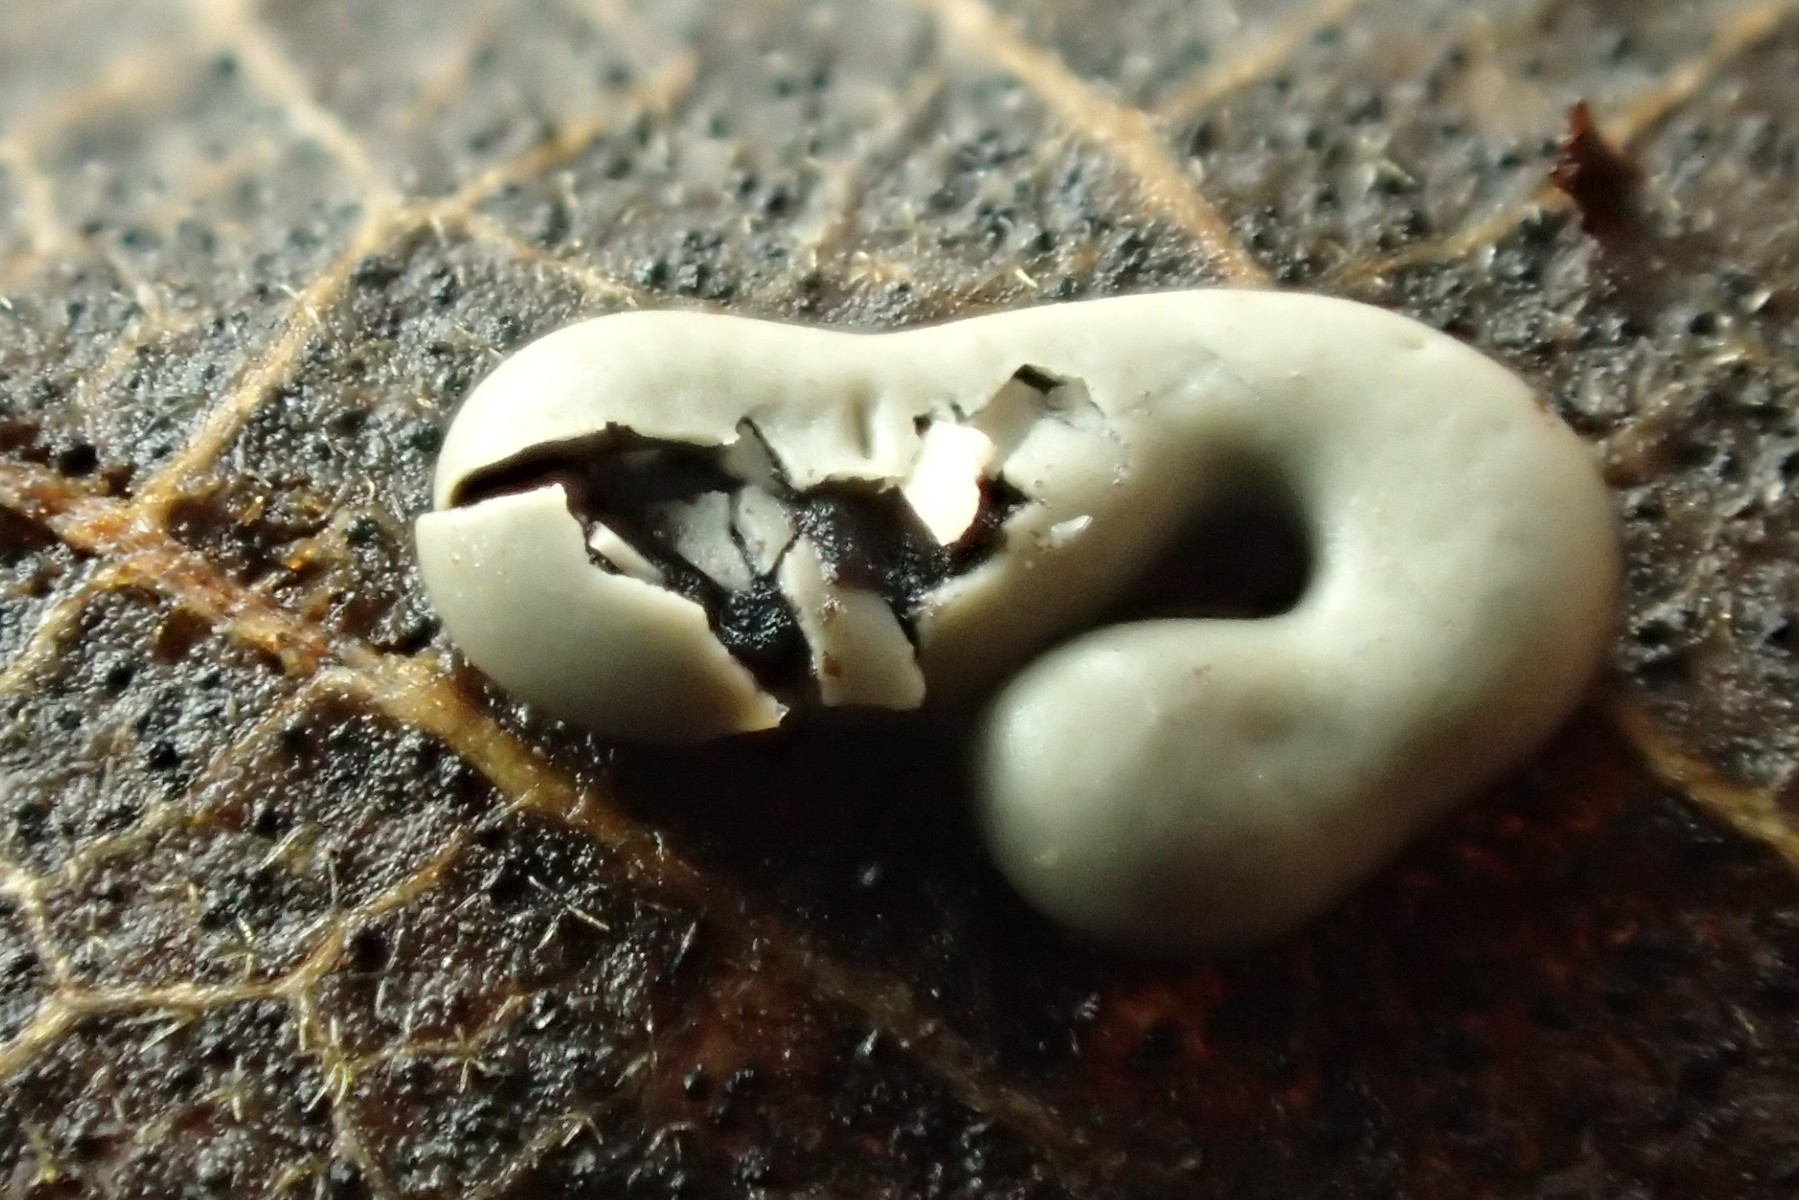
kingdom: Protozoa
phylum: Mycetozoa
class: Myxomycetes
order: Physarales
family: Didymiaceae
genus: Diderma
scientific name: Diderma deplanatum
